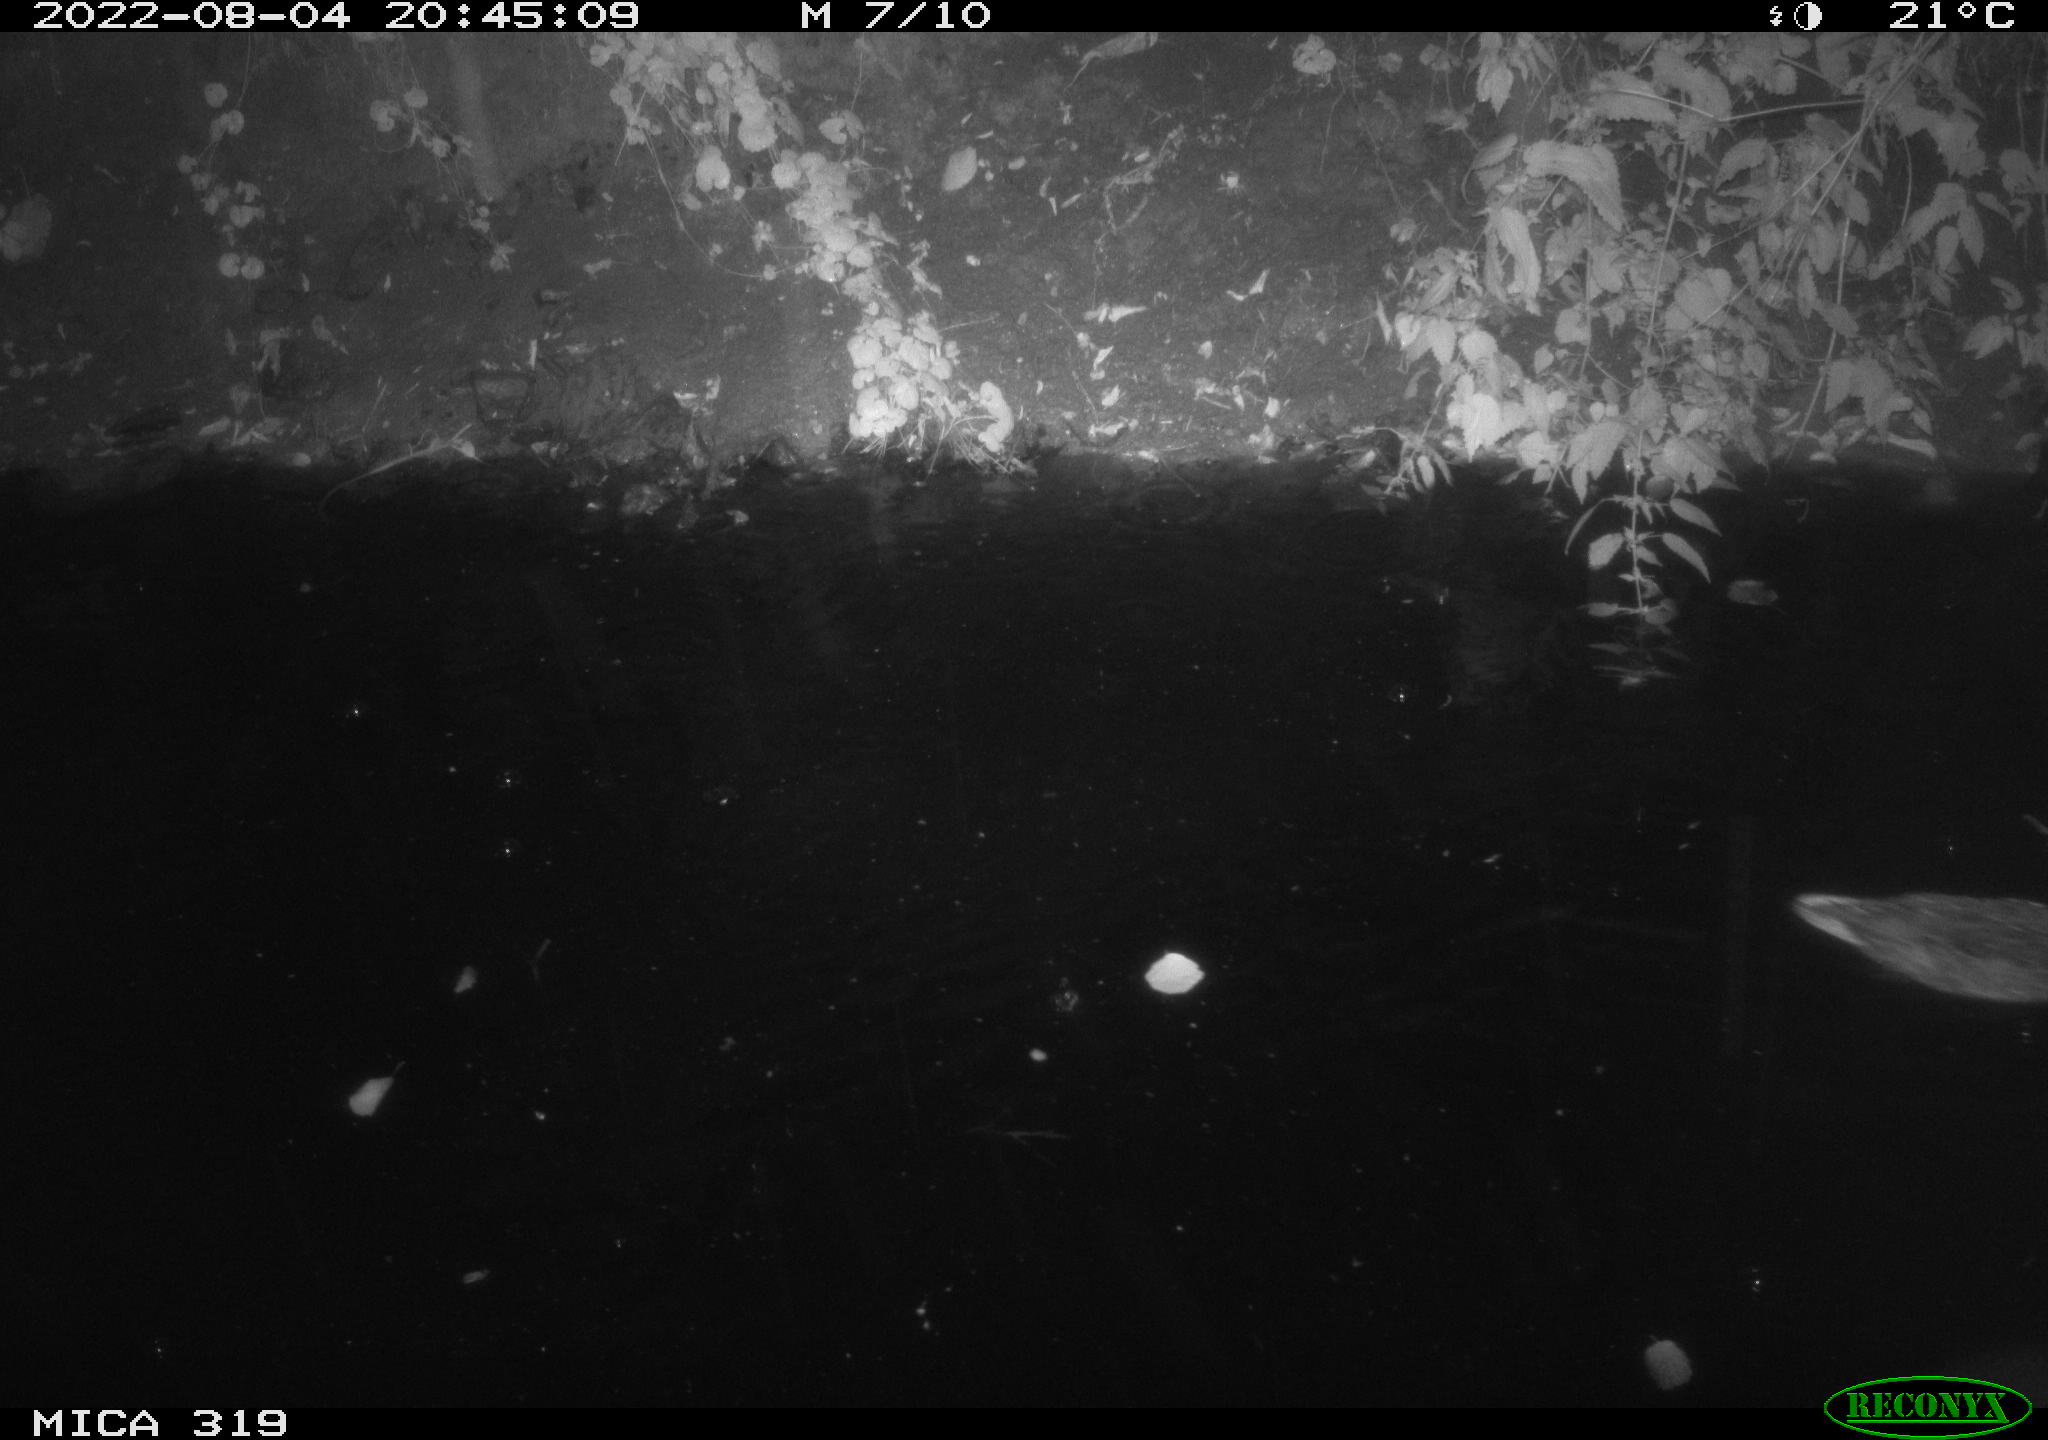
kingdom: Animalia
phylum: Chordata
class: Aves
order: Anseriformes
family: Anatidae
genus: Anas
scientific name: Anas
